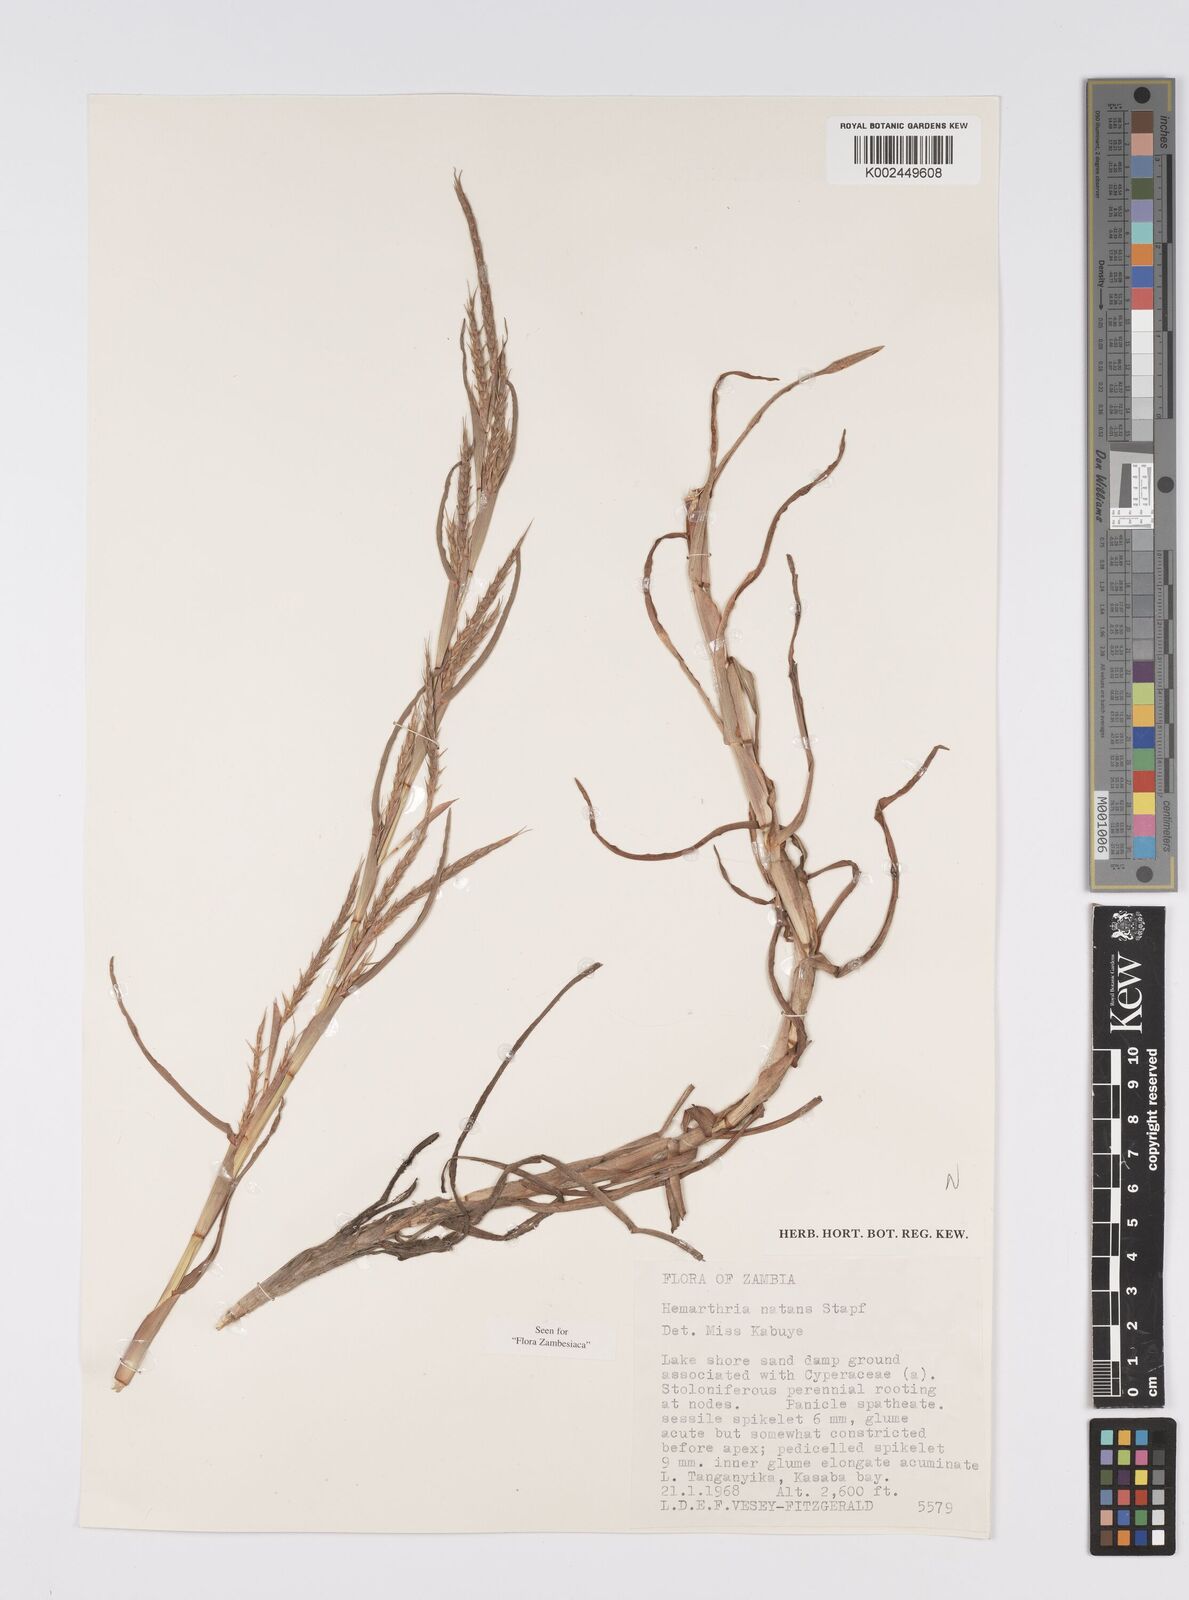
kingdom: Plantae
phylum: Tracheophyta
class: Liliopsida
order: Poales
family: Poaceae
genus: Hemarthria
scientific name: Hemarthria natans
